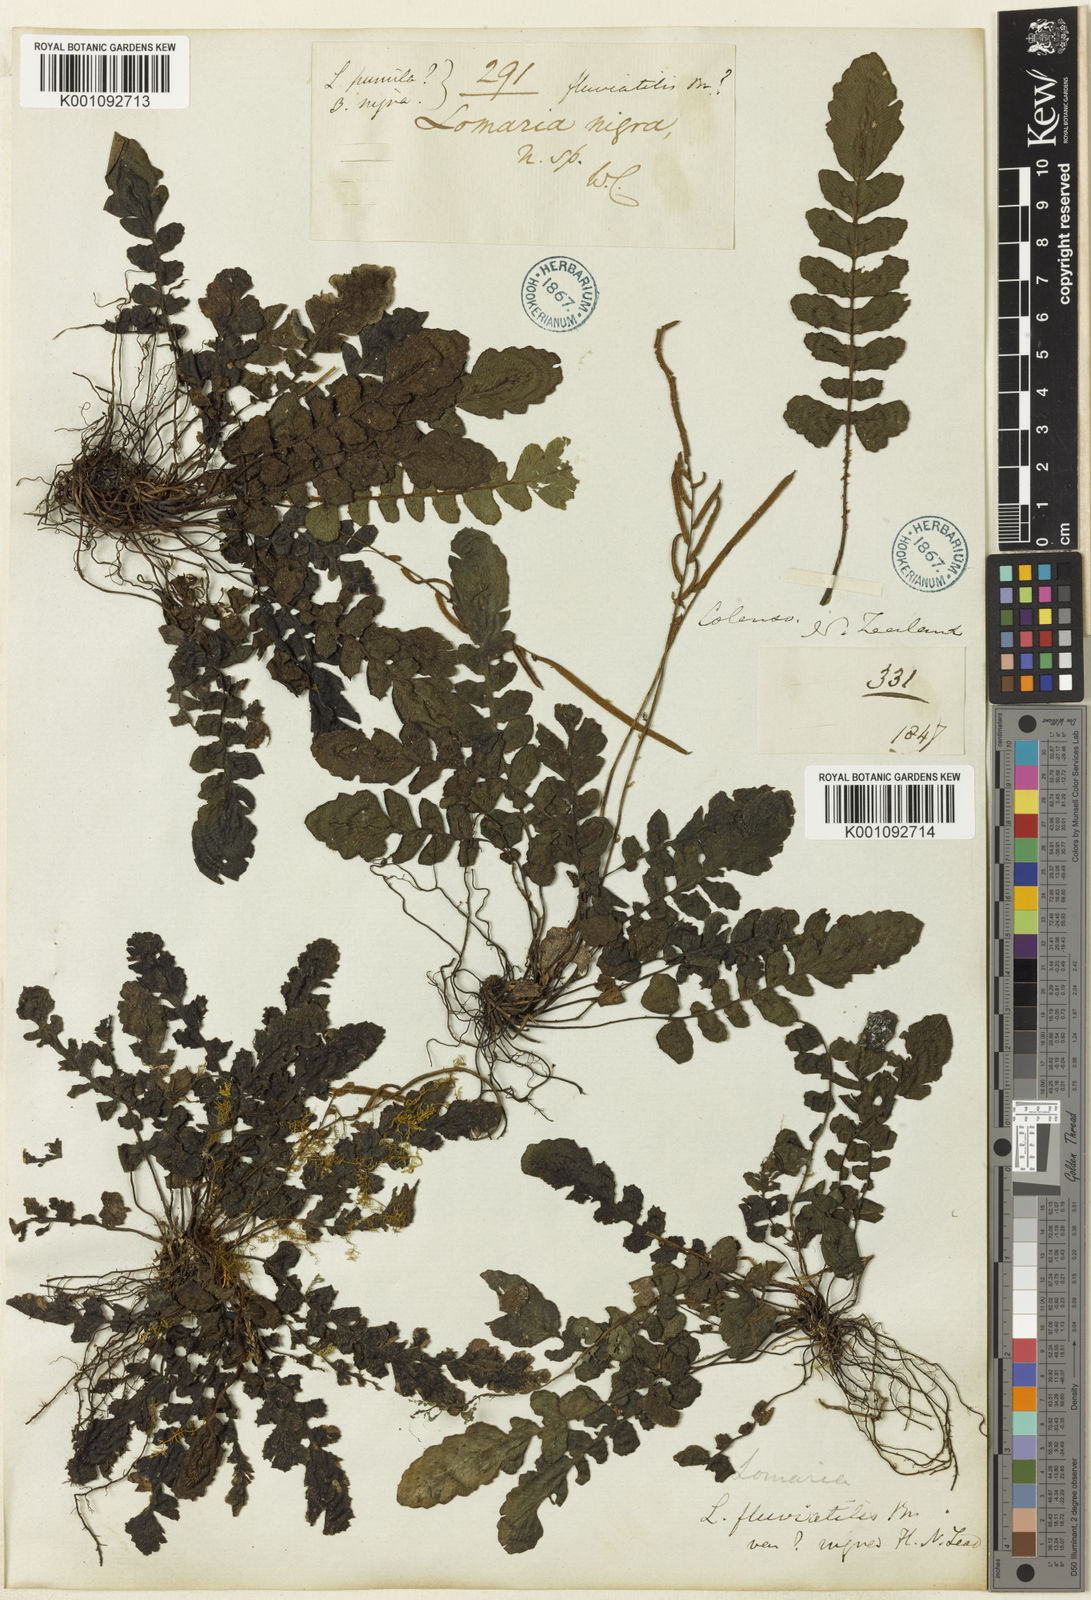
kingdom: Plantae
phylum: Tracheophyta
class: Polypodiopsida
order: Polypodiales
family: Blechnaceae
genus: Cranfillia
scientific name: Cranfillia nigra
